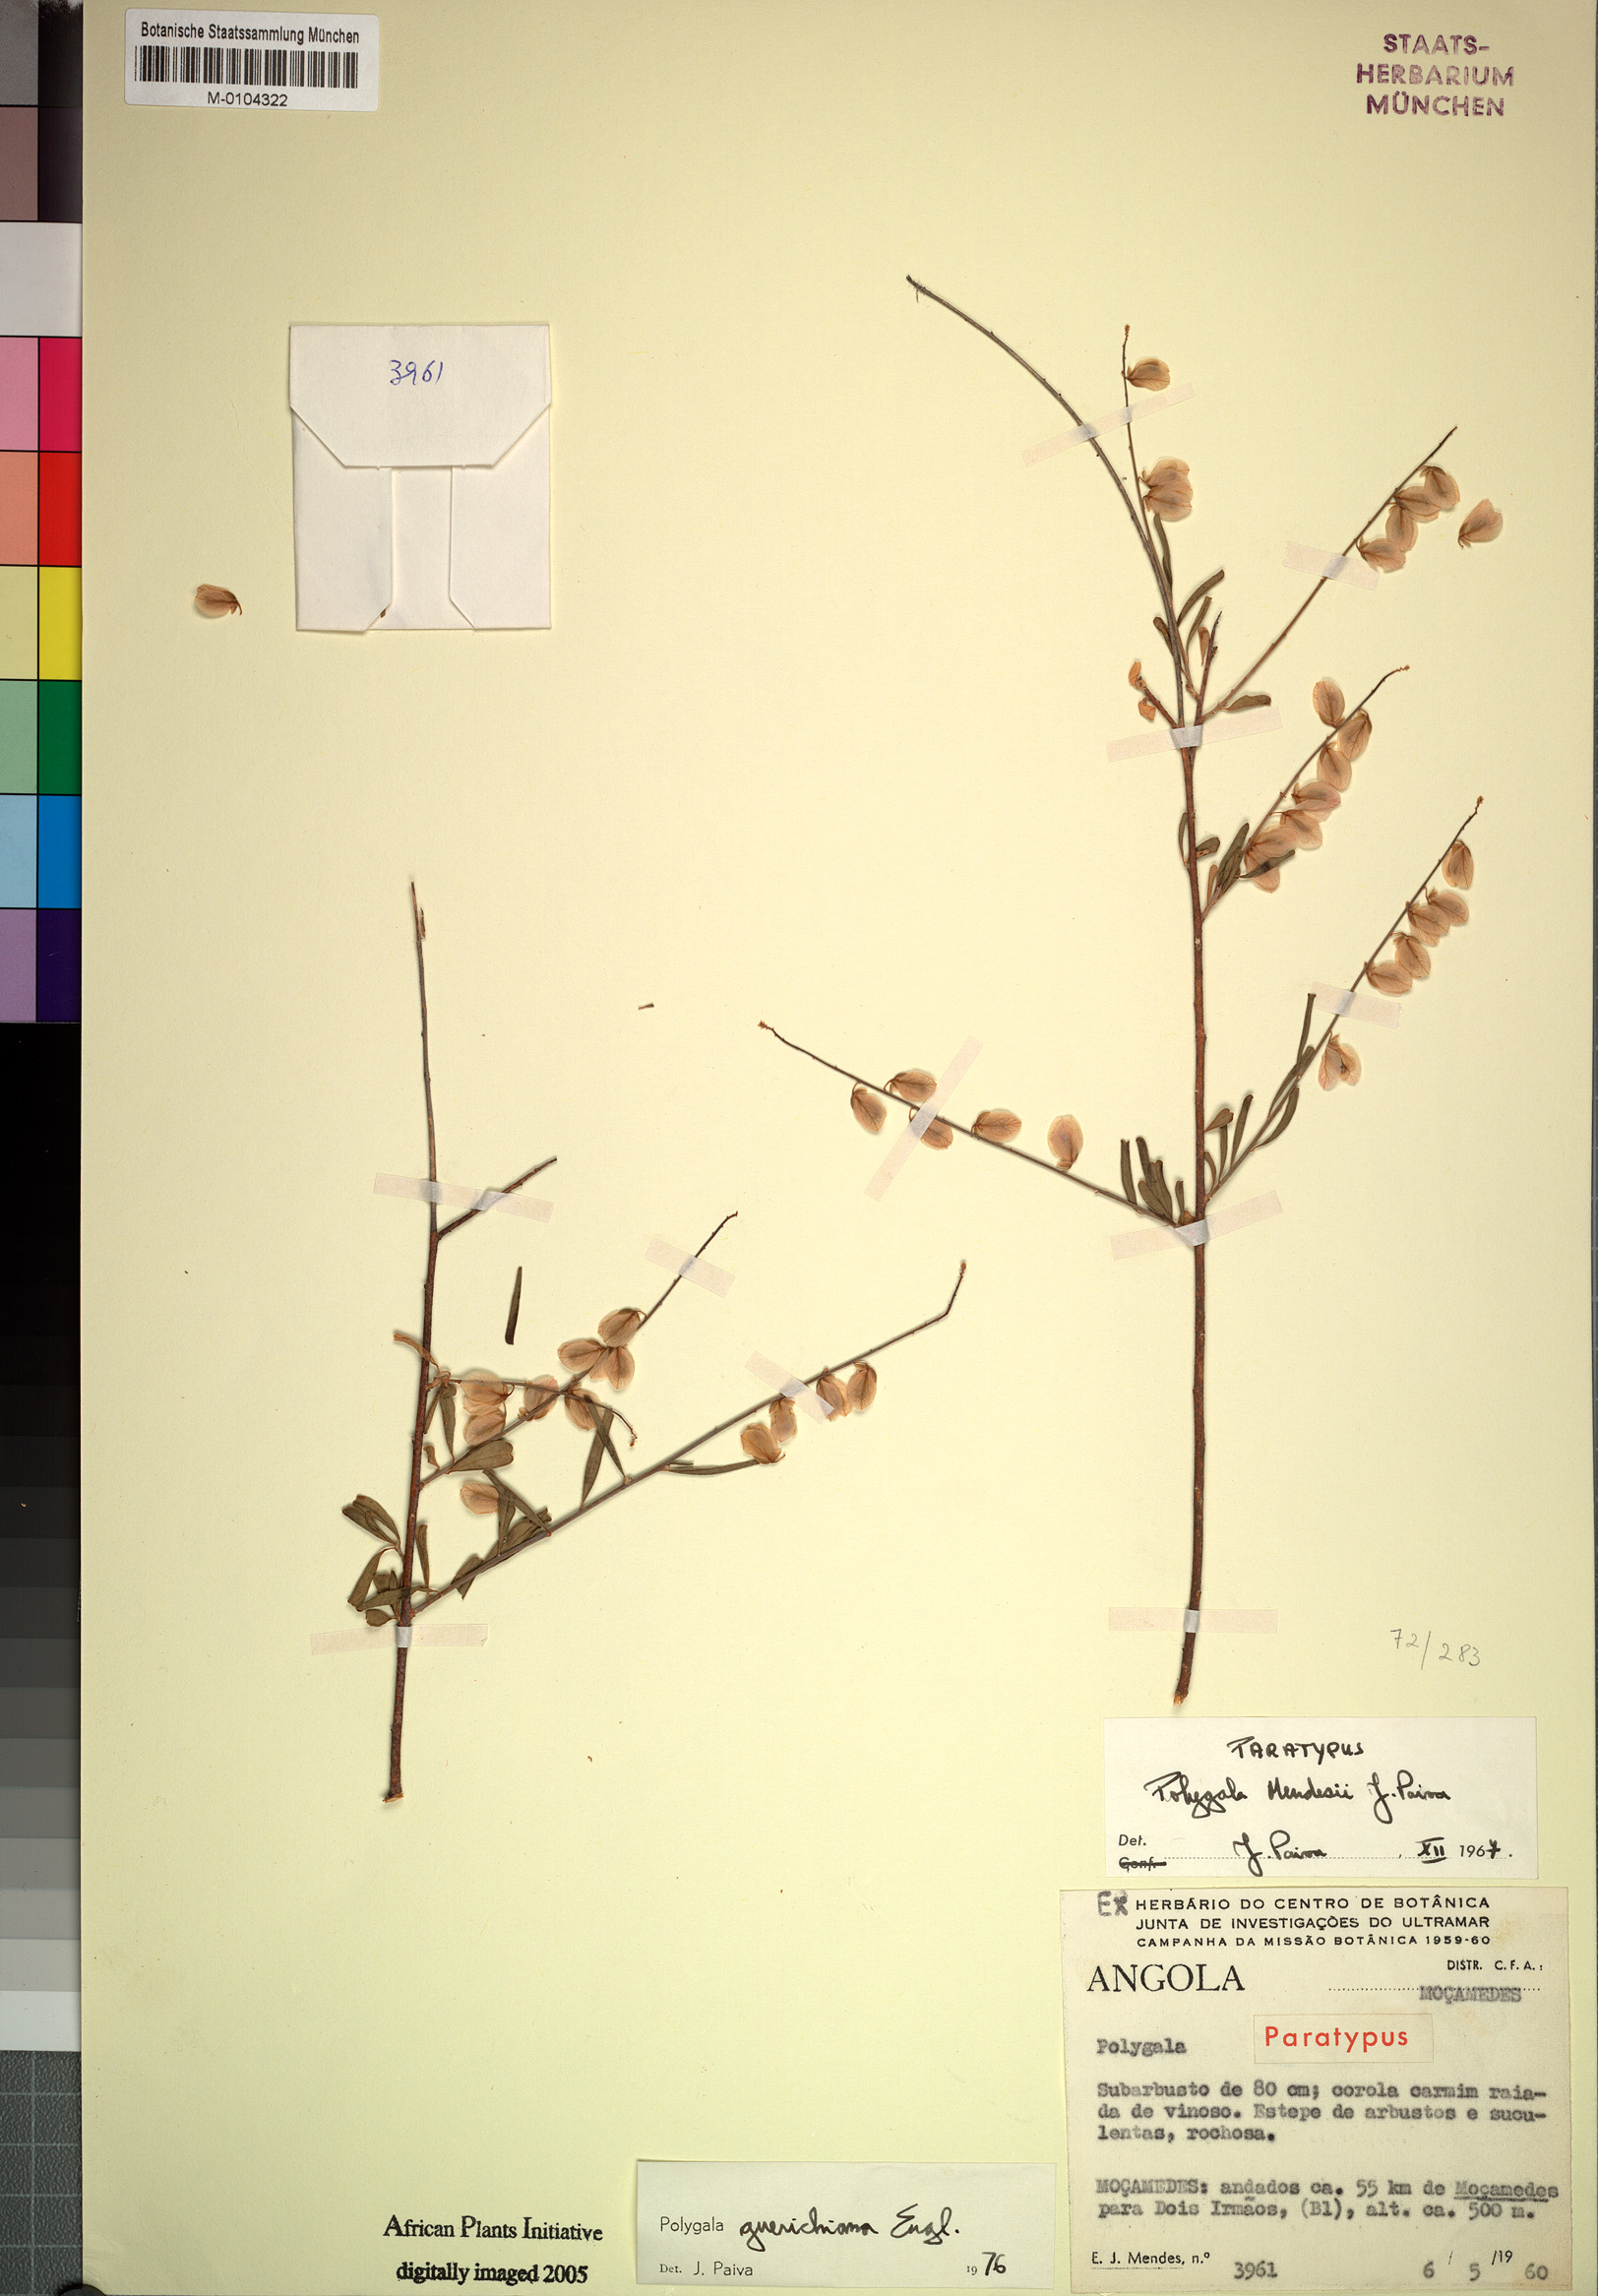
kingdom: Plantae
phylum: Tracheophyta
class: Magnoliopsida
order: Fabales
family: Polygalaceae
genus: Polygala
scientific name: Polygala guerichiana
